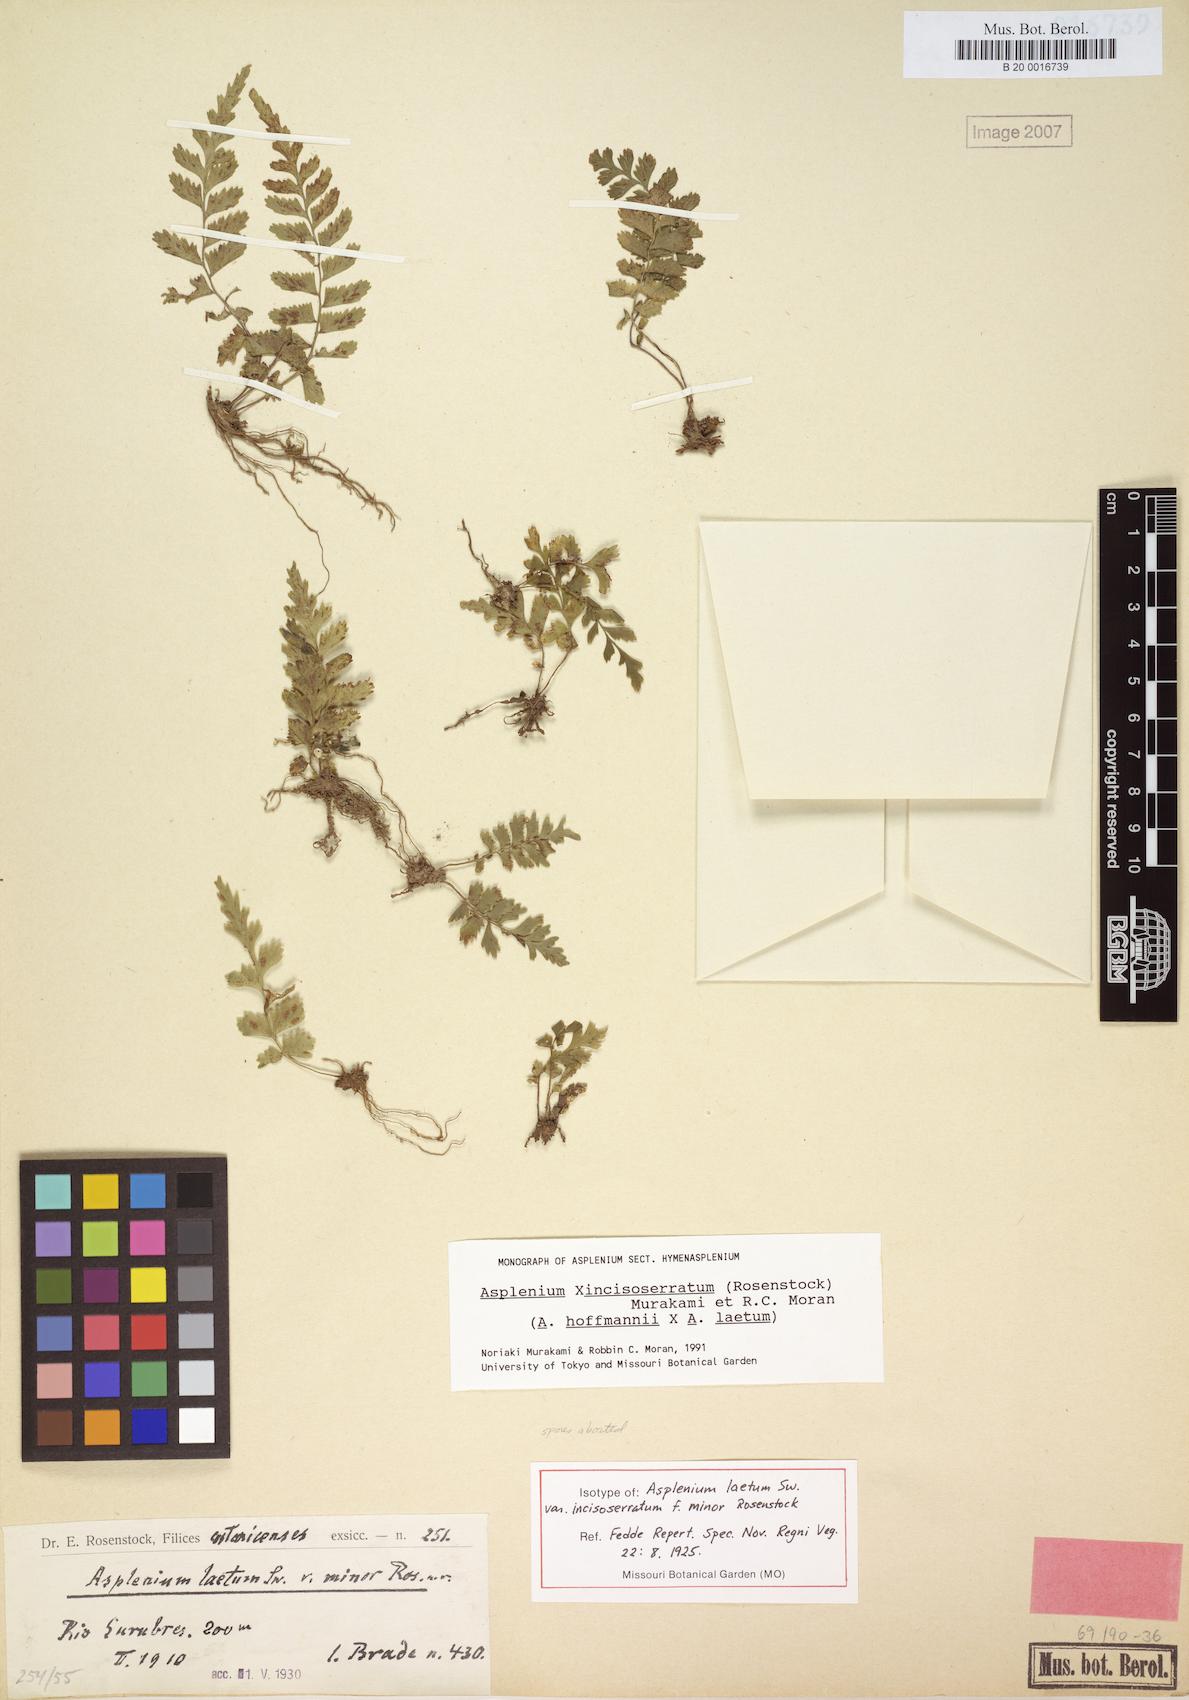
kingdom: Plantae
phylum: Tracheophyta
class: Polypodiopsida
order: Polypodiales
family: Aspleniaceae
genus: Hymenasplenium
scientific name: Hymenasplenium incisoserratum
